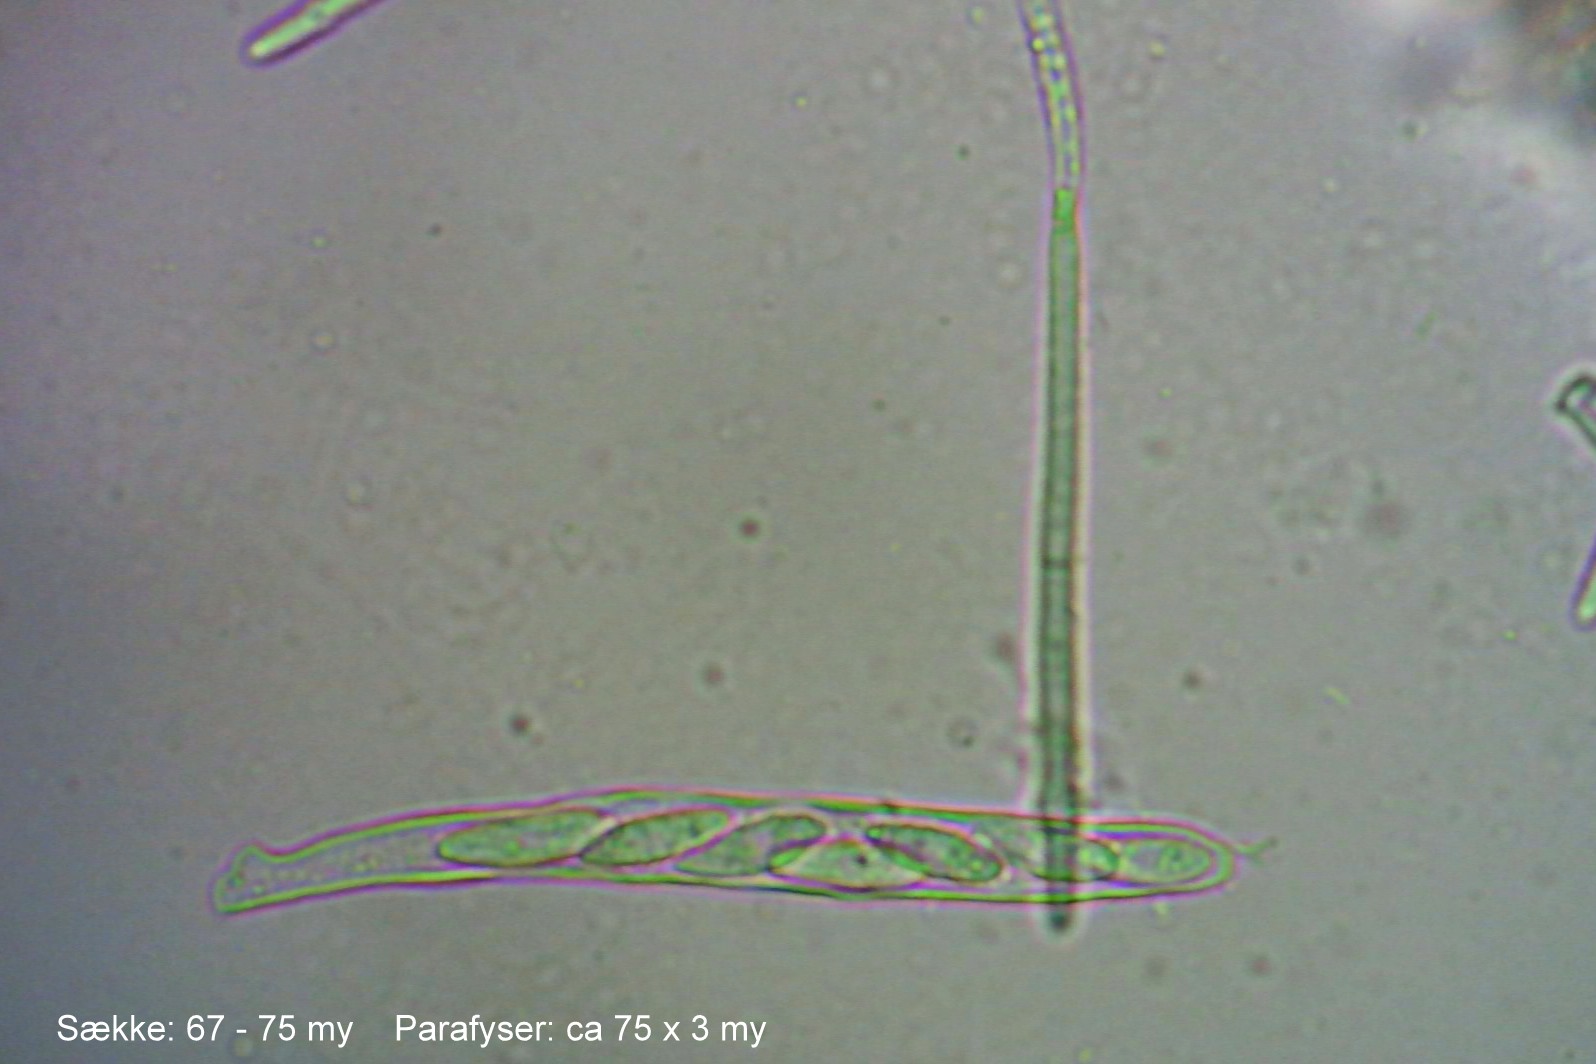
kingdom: Fungi
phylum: Ascomycota
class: Leotiomycetes
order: Helotiales
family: Hyaloscyphaceae
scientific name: Hyaloscyphaceae
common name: frynseskivefamilien
